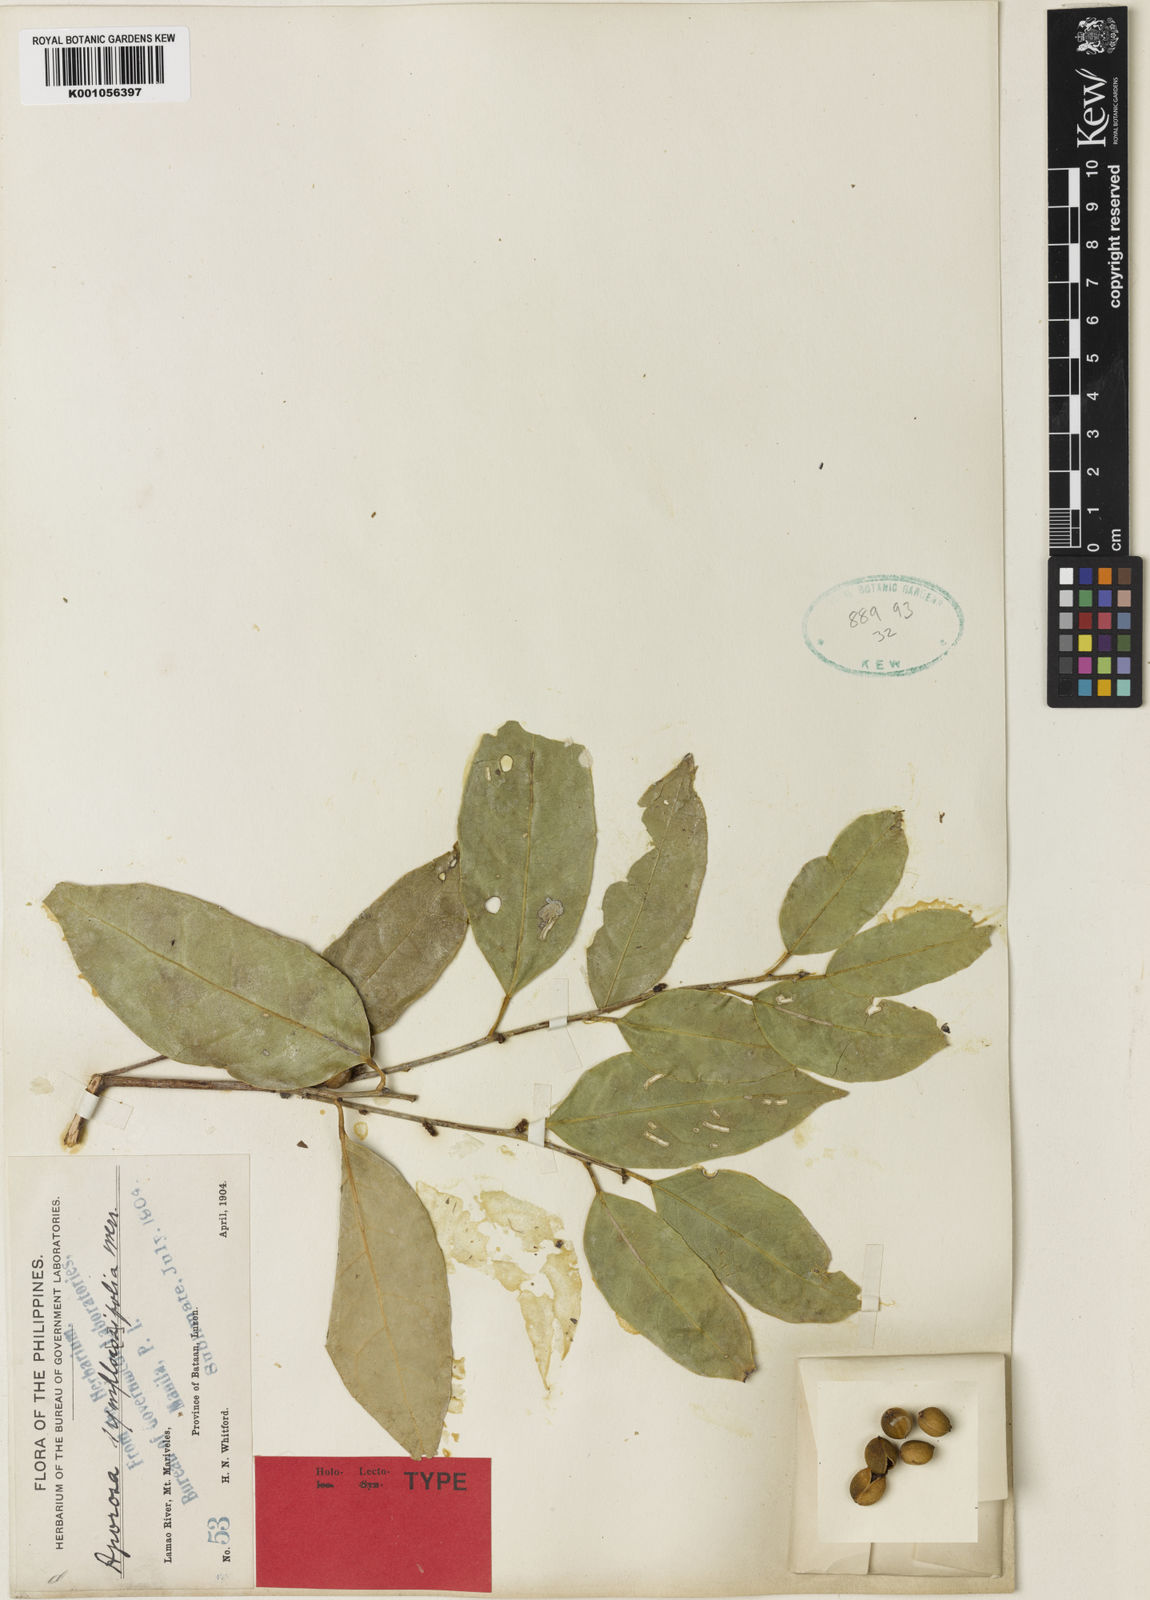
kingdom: Plantae
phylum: Tracheophyta
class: Magnoliopsida
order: Malpighiales
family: Phyllanthaceae
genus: Aporosa
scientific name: Aporosa symplocifolia
